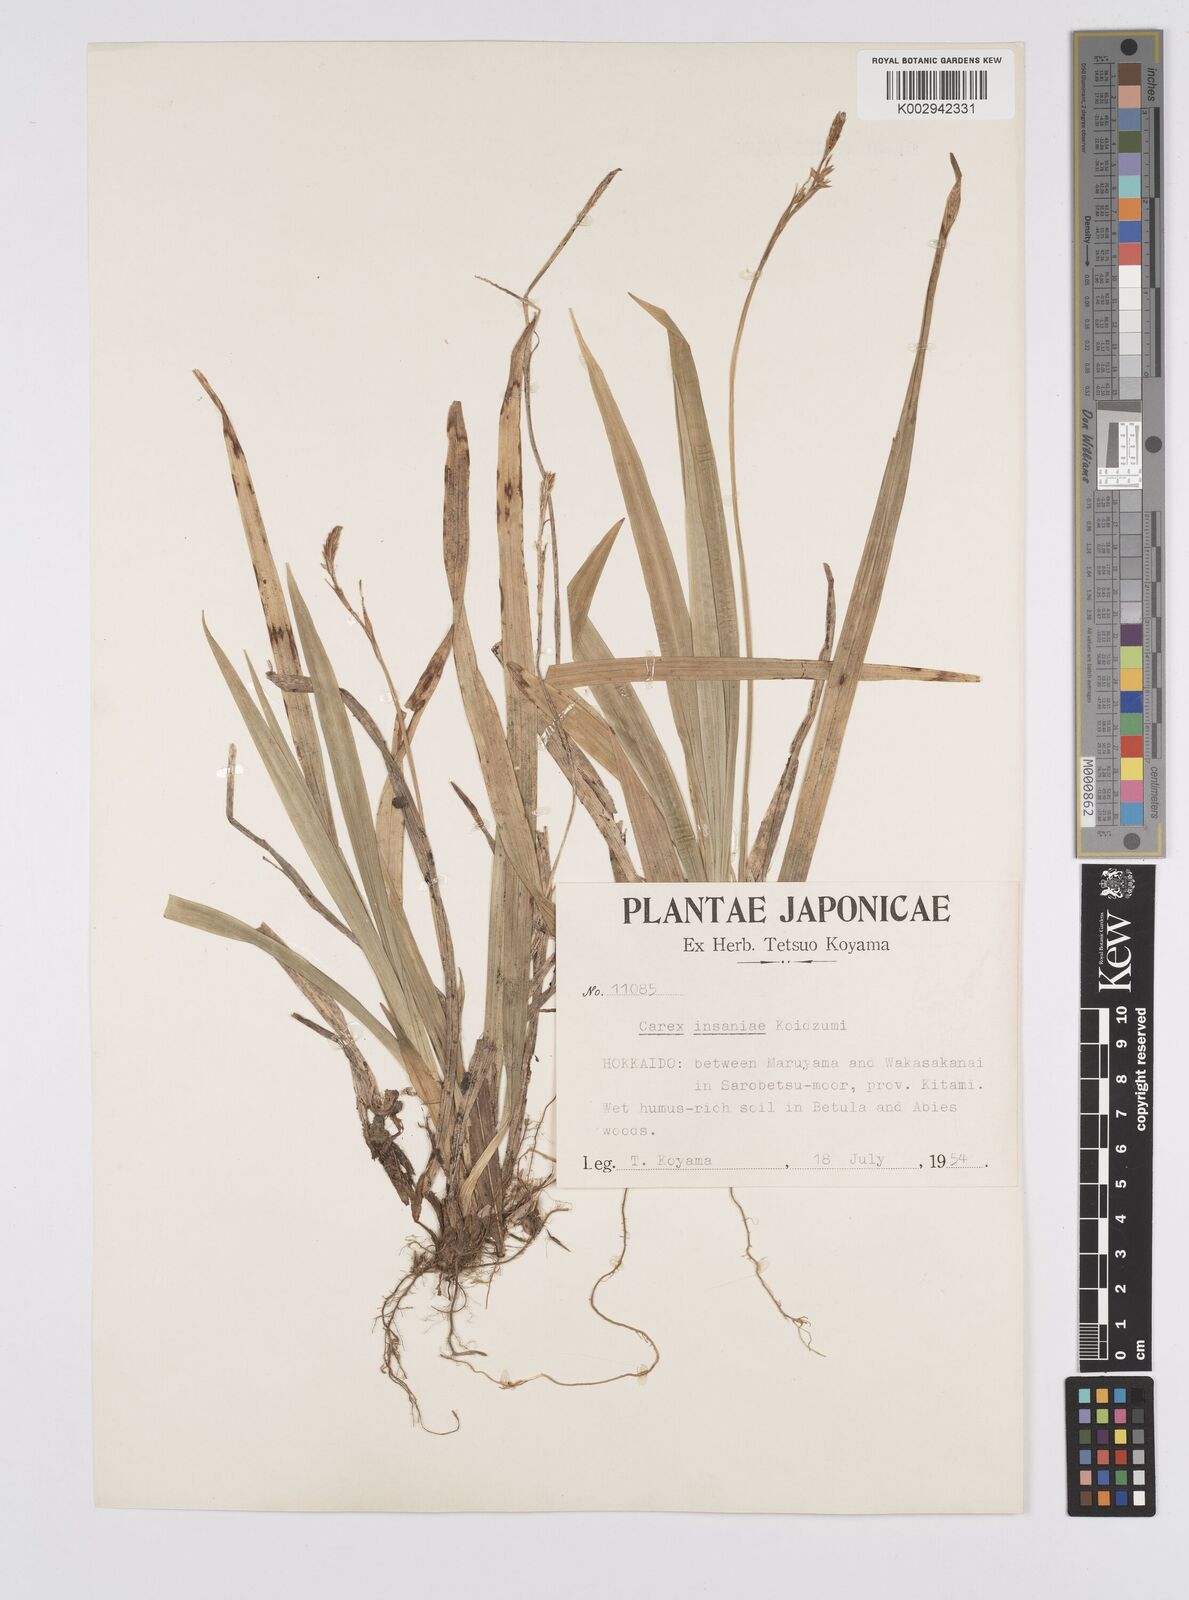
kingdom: Plantae
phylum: Tracheophyta
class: Liliopsida
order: Poales
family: Cyperaceae
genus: Carex
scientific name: Carex insaniae
